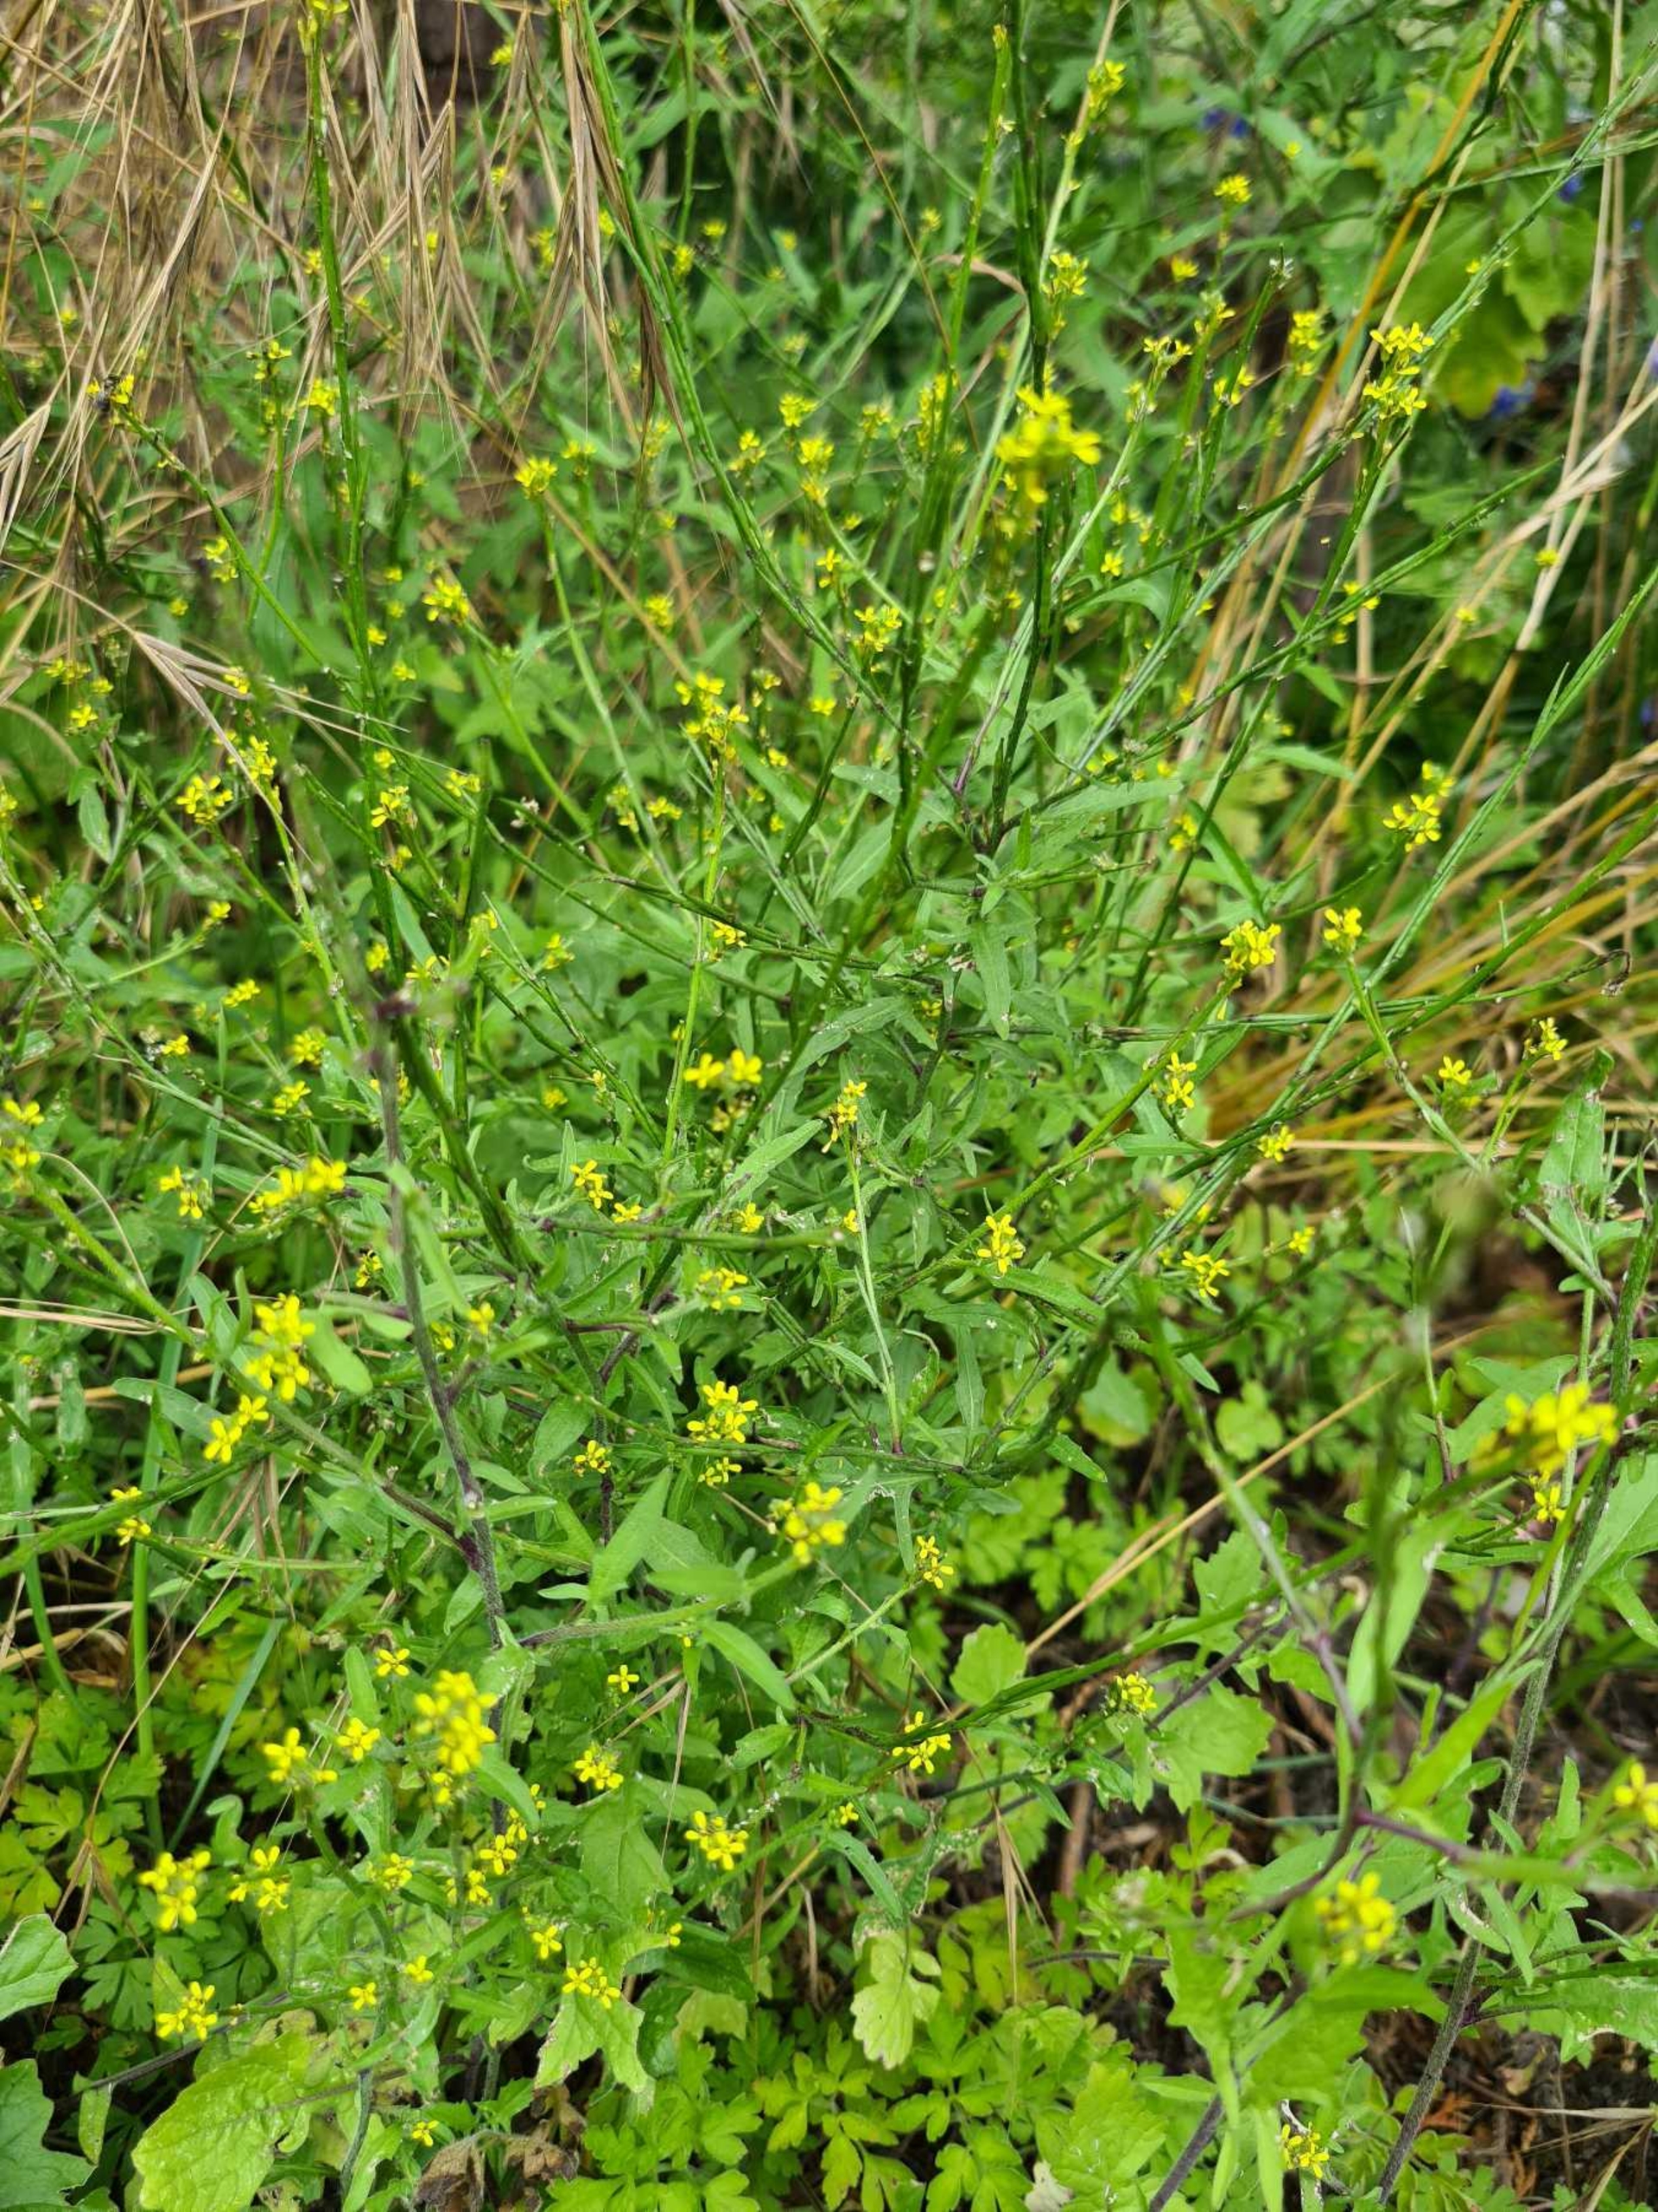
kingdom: Plantae
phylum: Tracheophyta
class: Magnoliopsida
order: Brassicales
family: Brassicaceae
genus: Sisymbrium
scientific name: Sisymbrium officinale
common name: Rank vejsennep
